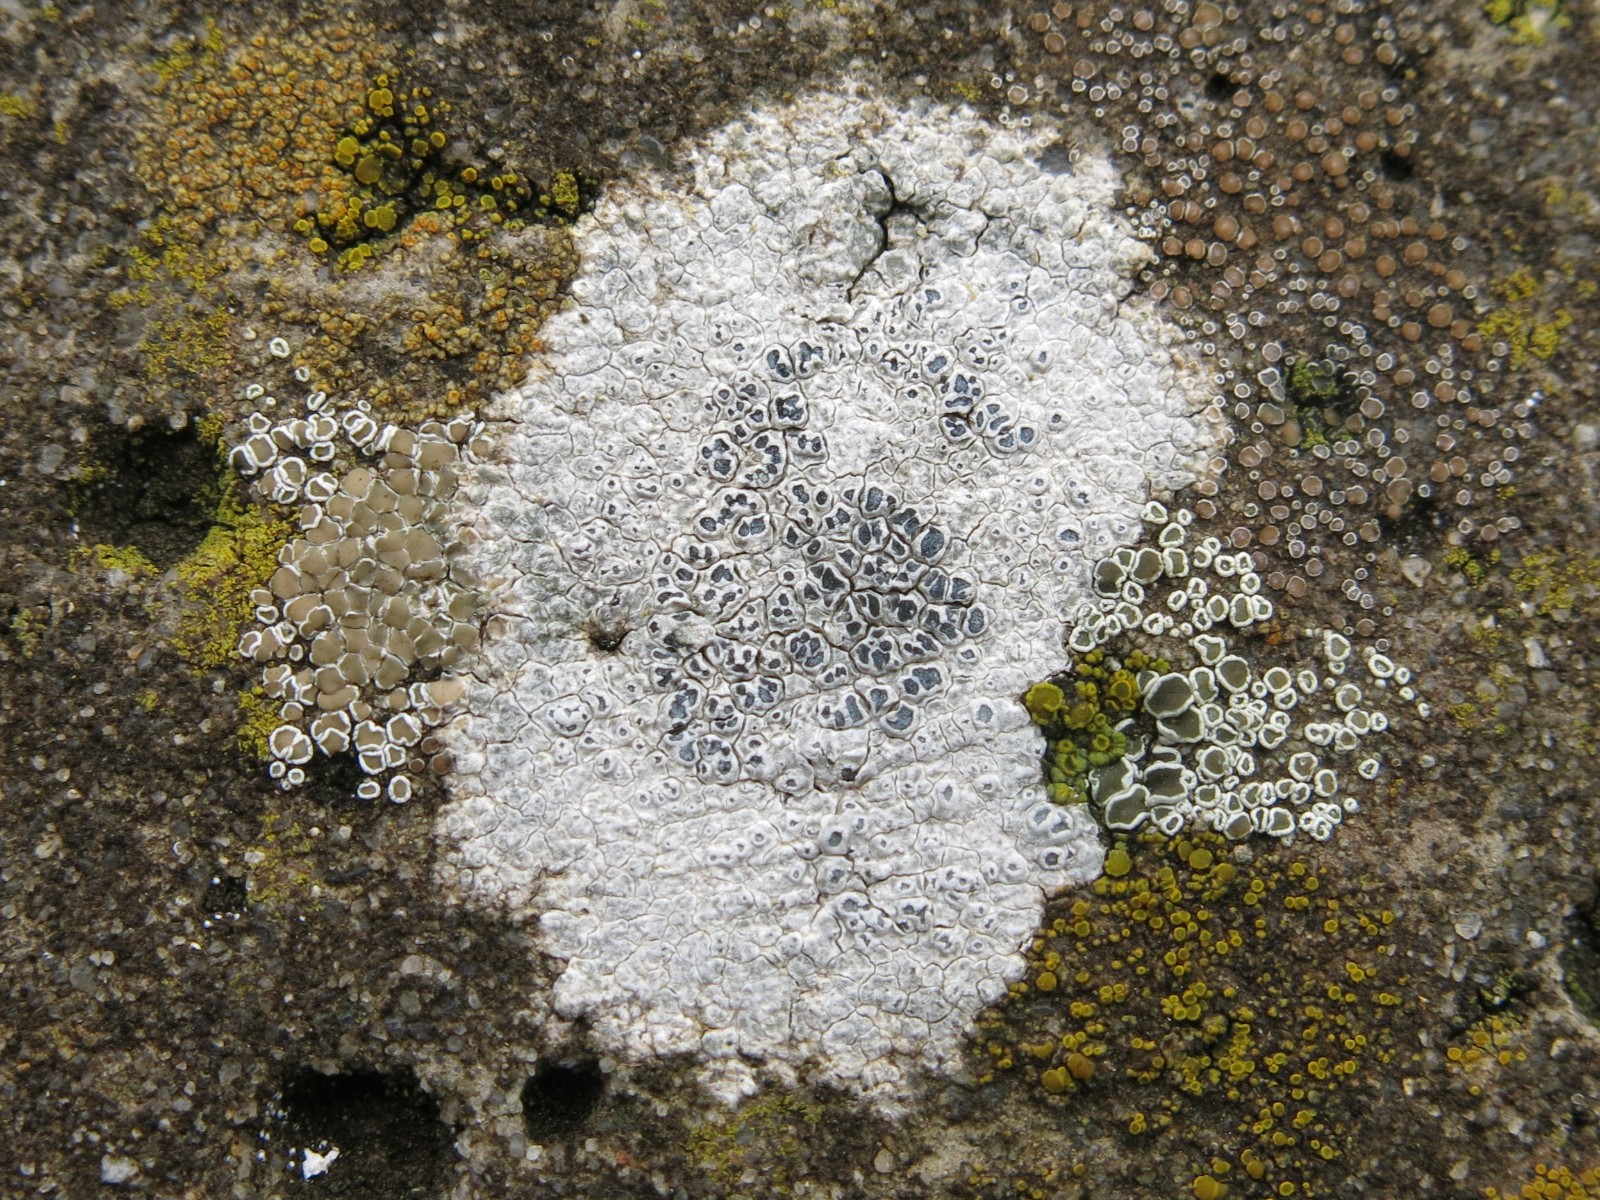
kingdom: Fungi
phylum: Ascomycota
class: Lecanoromycetes
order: Pertusariales
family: Megasporaceae
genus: Circinaria
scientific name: Circinaria calcarea
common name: kalk-hulskivelav
